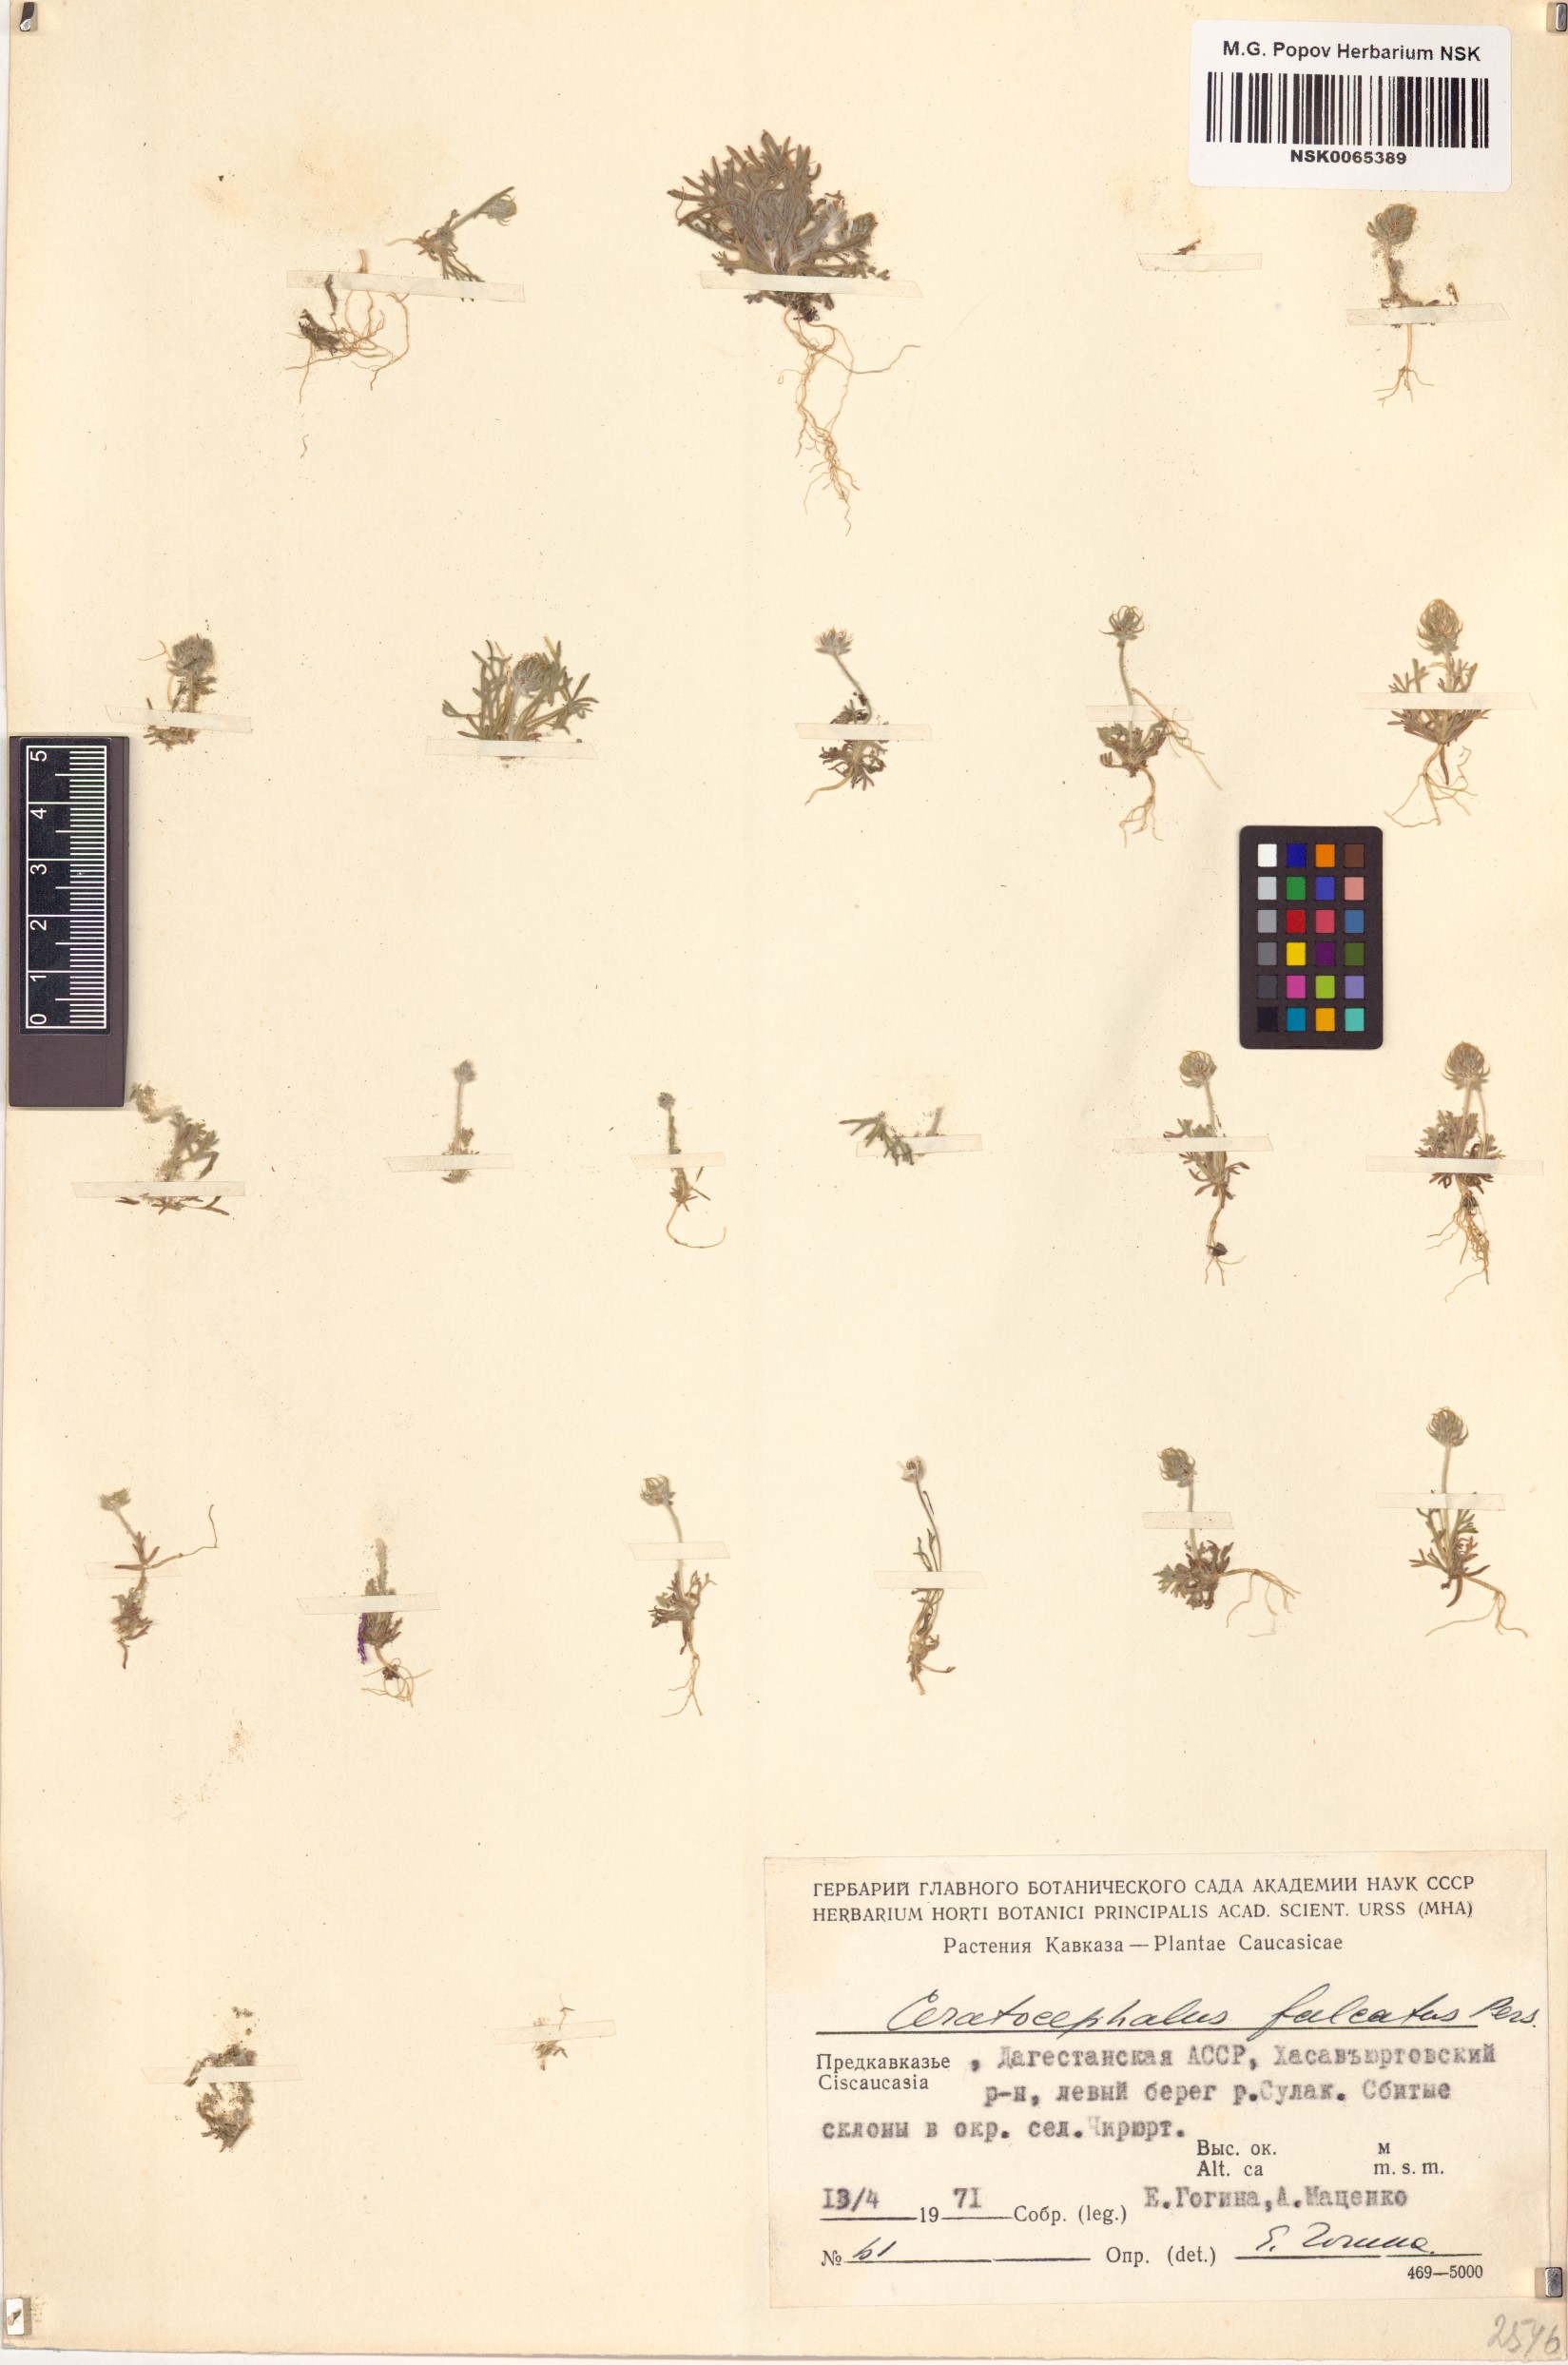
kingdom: Plantae
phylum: Tracheophyta
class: Magnoliopsida
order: Ranunculales
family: Ranunculaceae
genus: Ceratocephala
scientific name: Ceratocephala falcata
